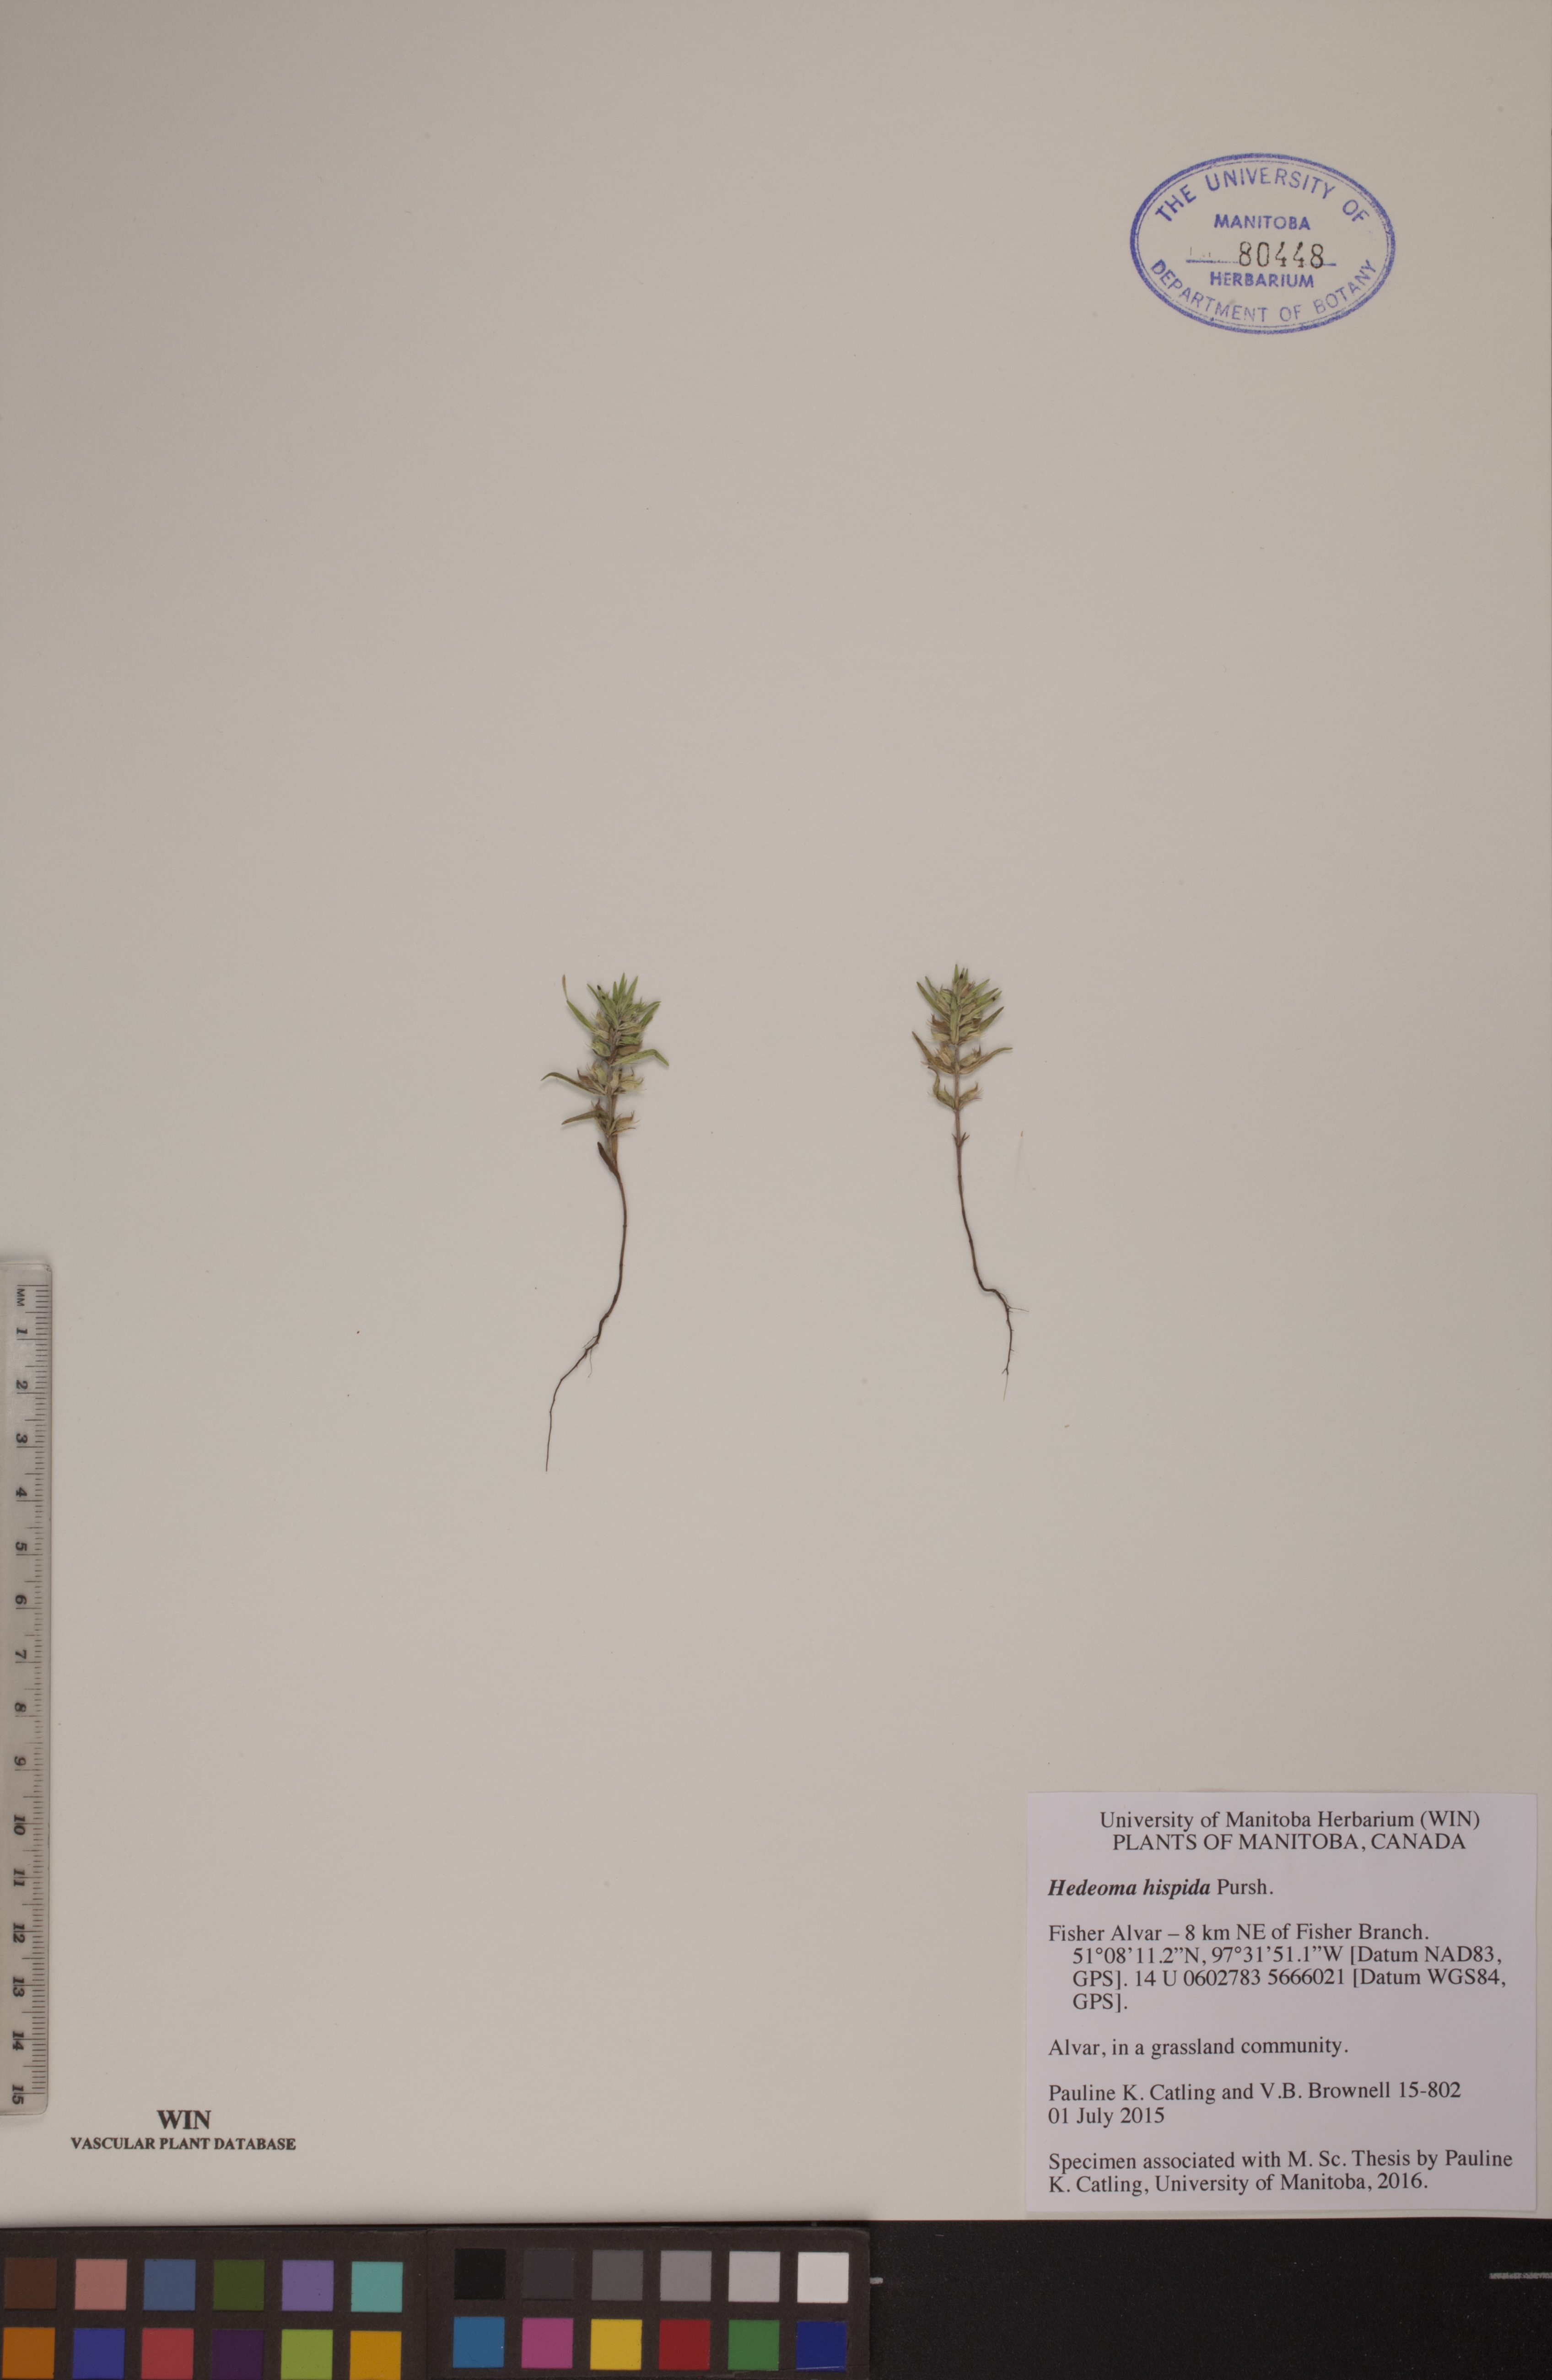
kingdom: Plantae
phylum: Tracheophyta
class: Magnoliopsida
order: Lamiales
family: Lamiaceae
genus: Hedeoma
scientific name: Hedeoma hispida
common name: Mock pennyroyal
